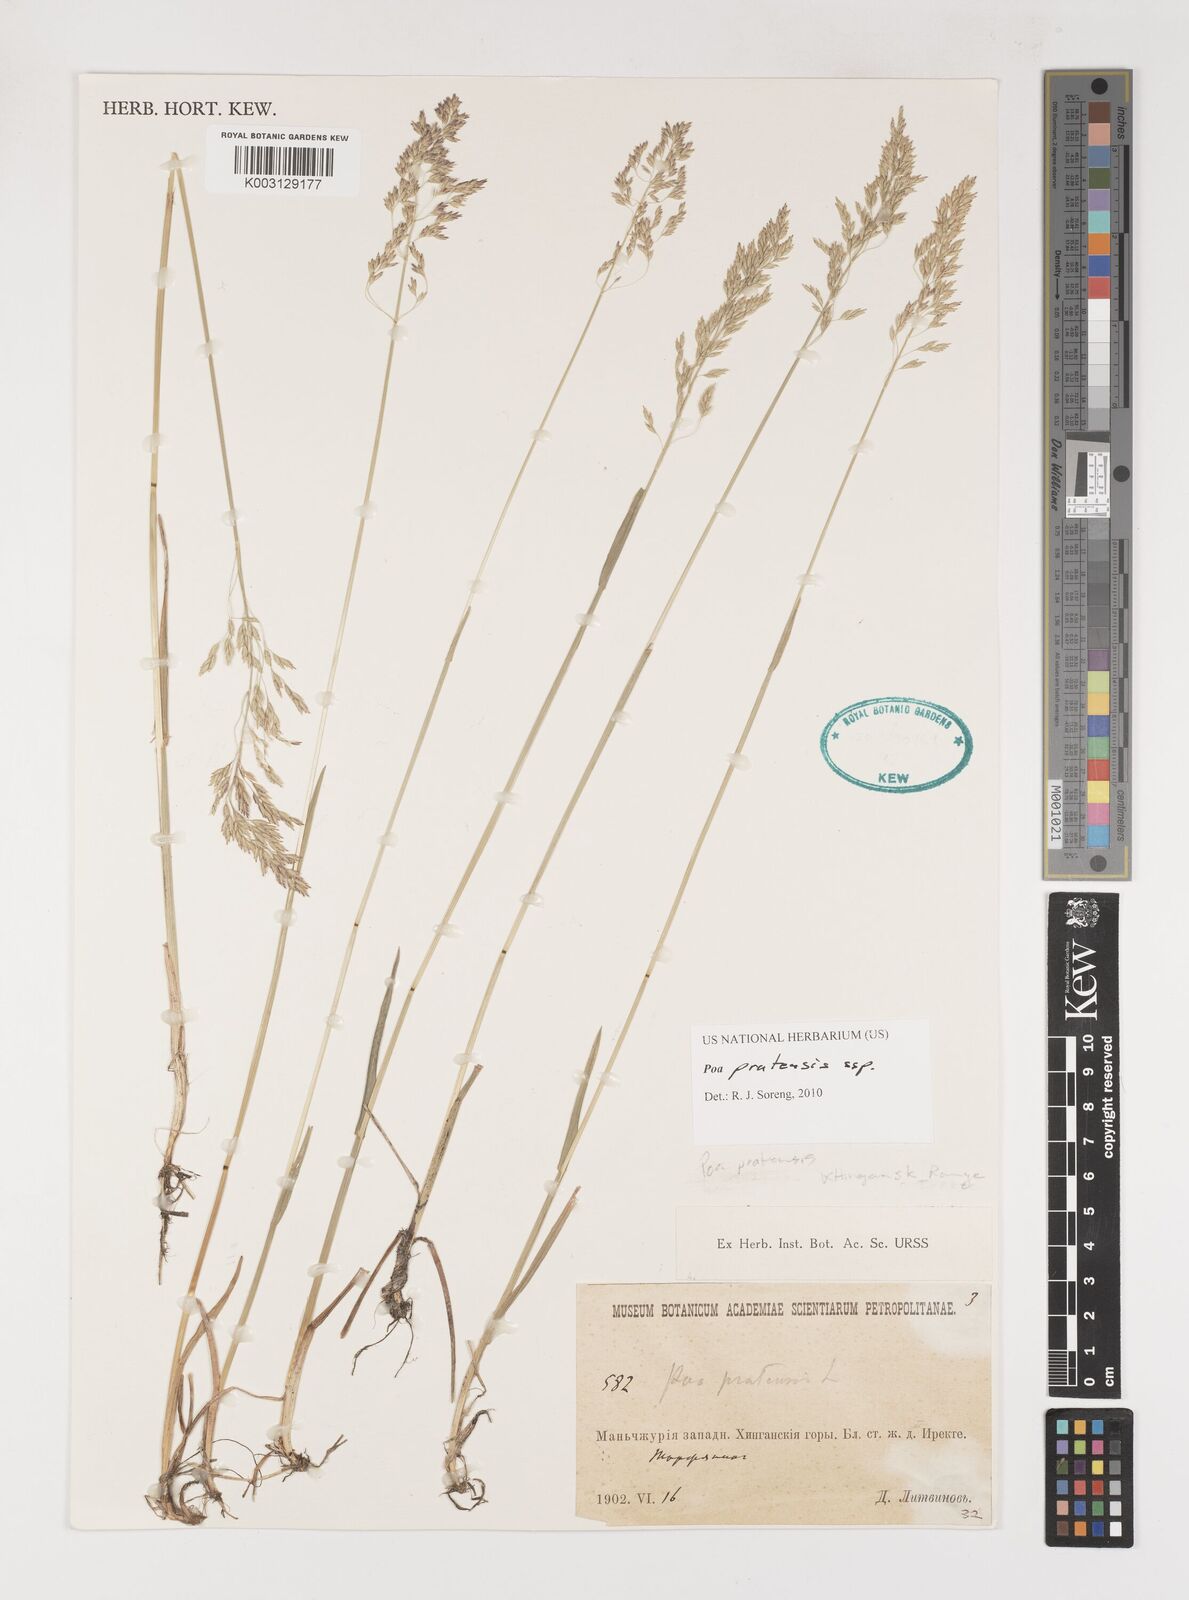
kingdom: Plantae
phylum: Tracheophyta
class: Liliopsida
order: Poales
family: Poaceae
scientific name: Poaceae
